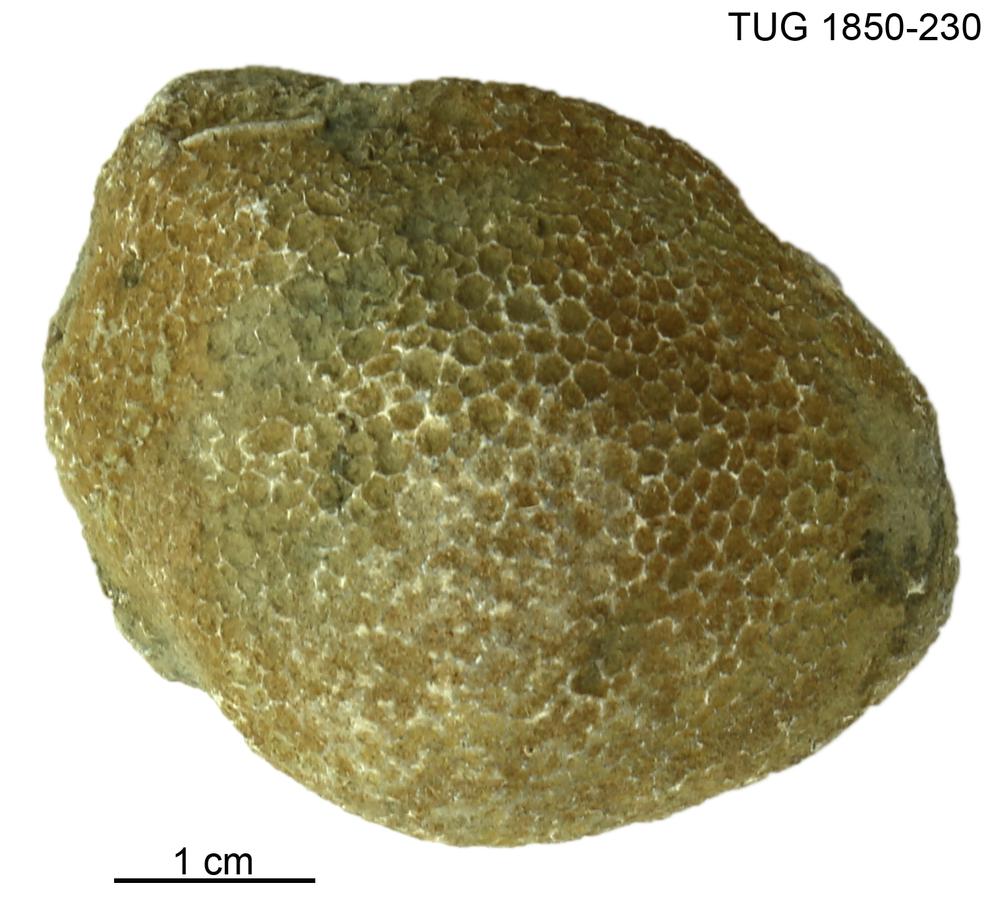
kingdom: Animalia
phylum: Cnidaria
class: Anthozoa
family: Favositidae
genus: Favosites
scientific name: Favosites
